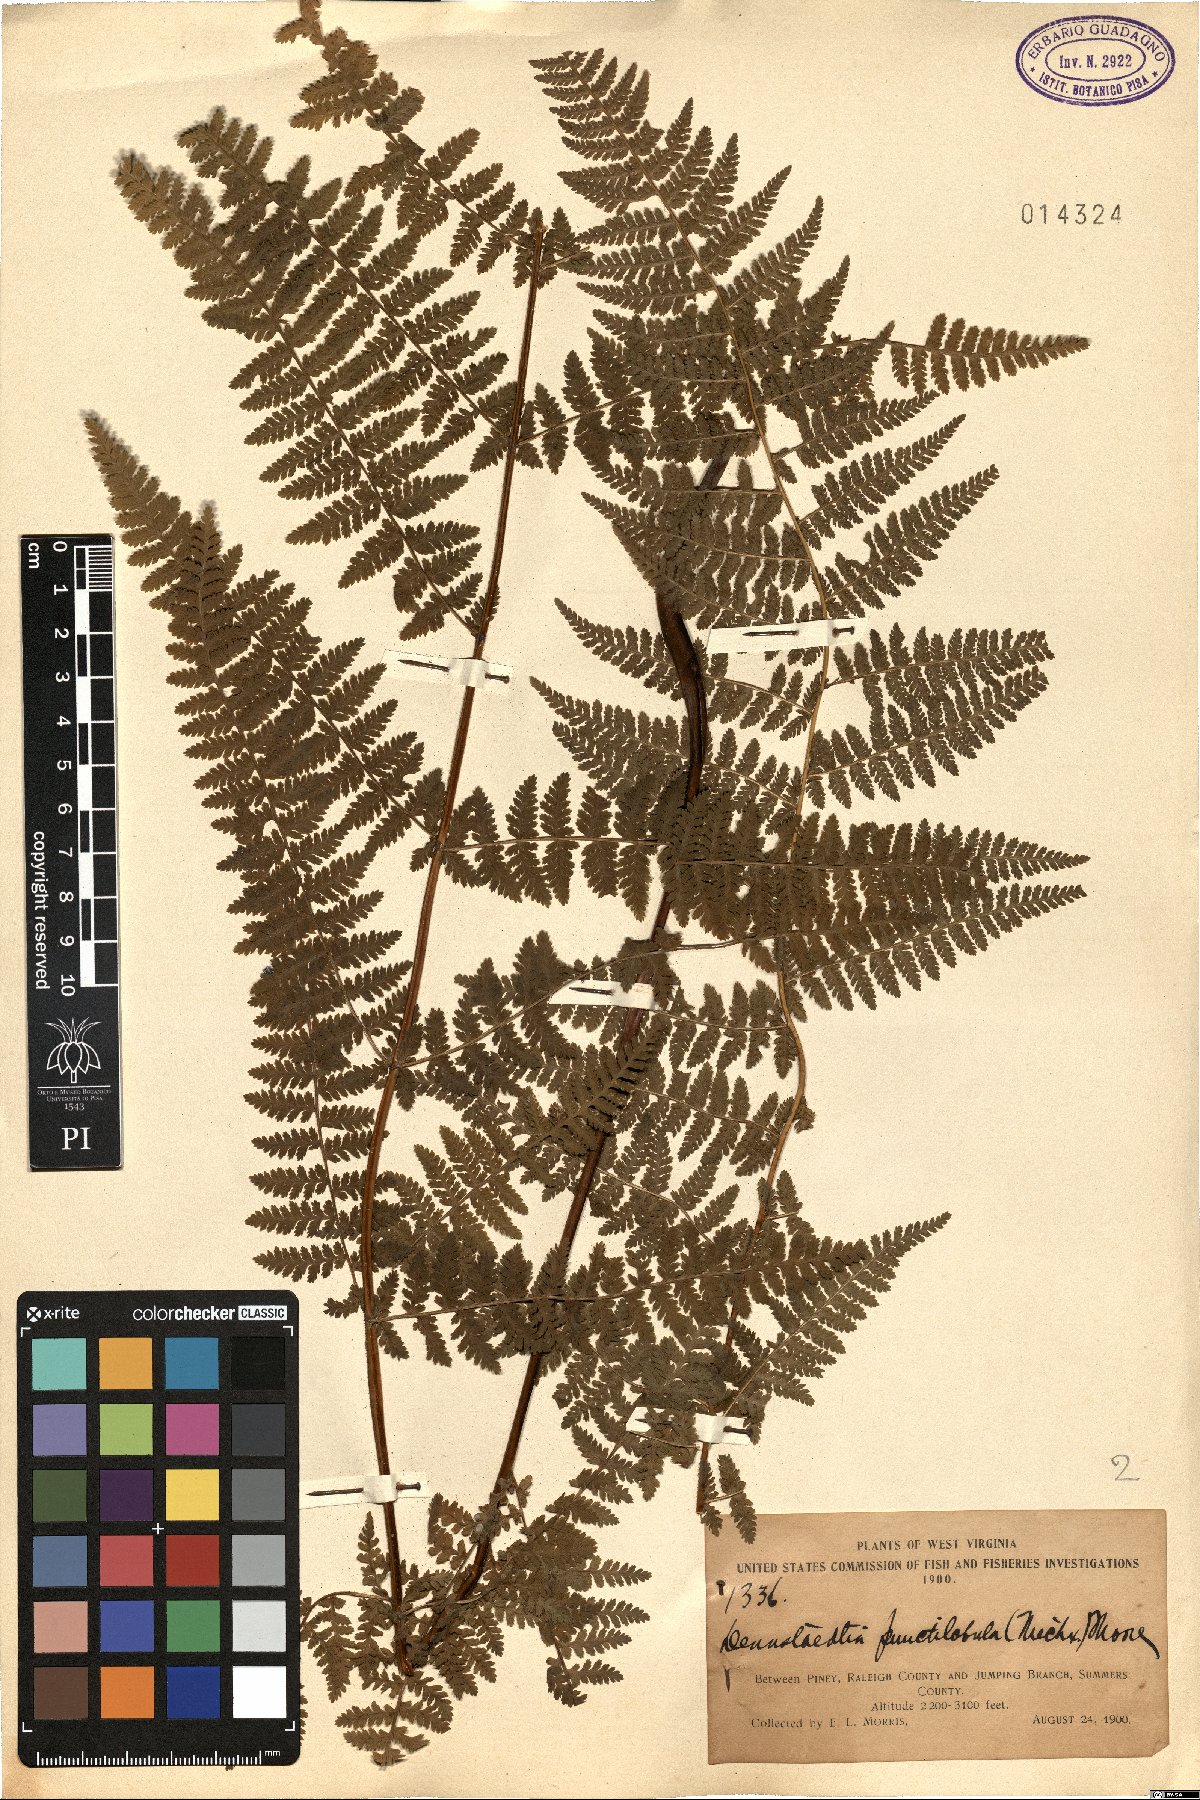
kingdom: Plantae
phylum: Tracheophyta
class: Polypodiopsida
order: Polypodiales
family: Dennstaedtiaceae
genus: Sitobolium
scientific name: Sitobolium punctilobum
